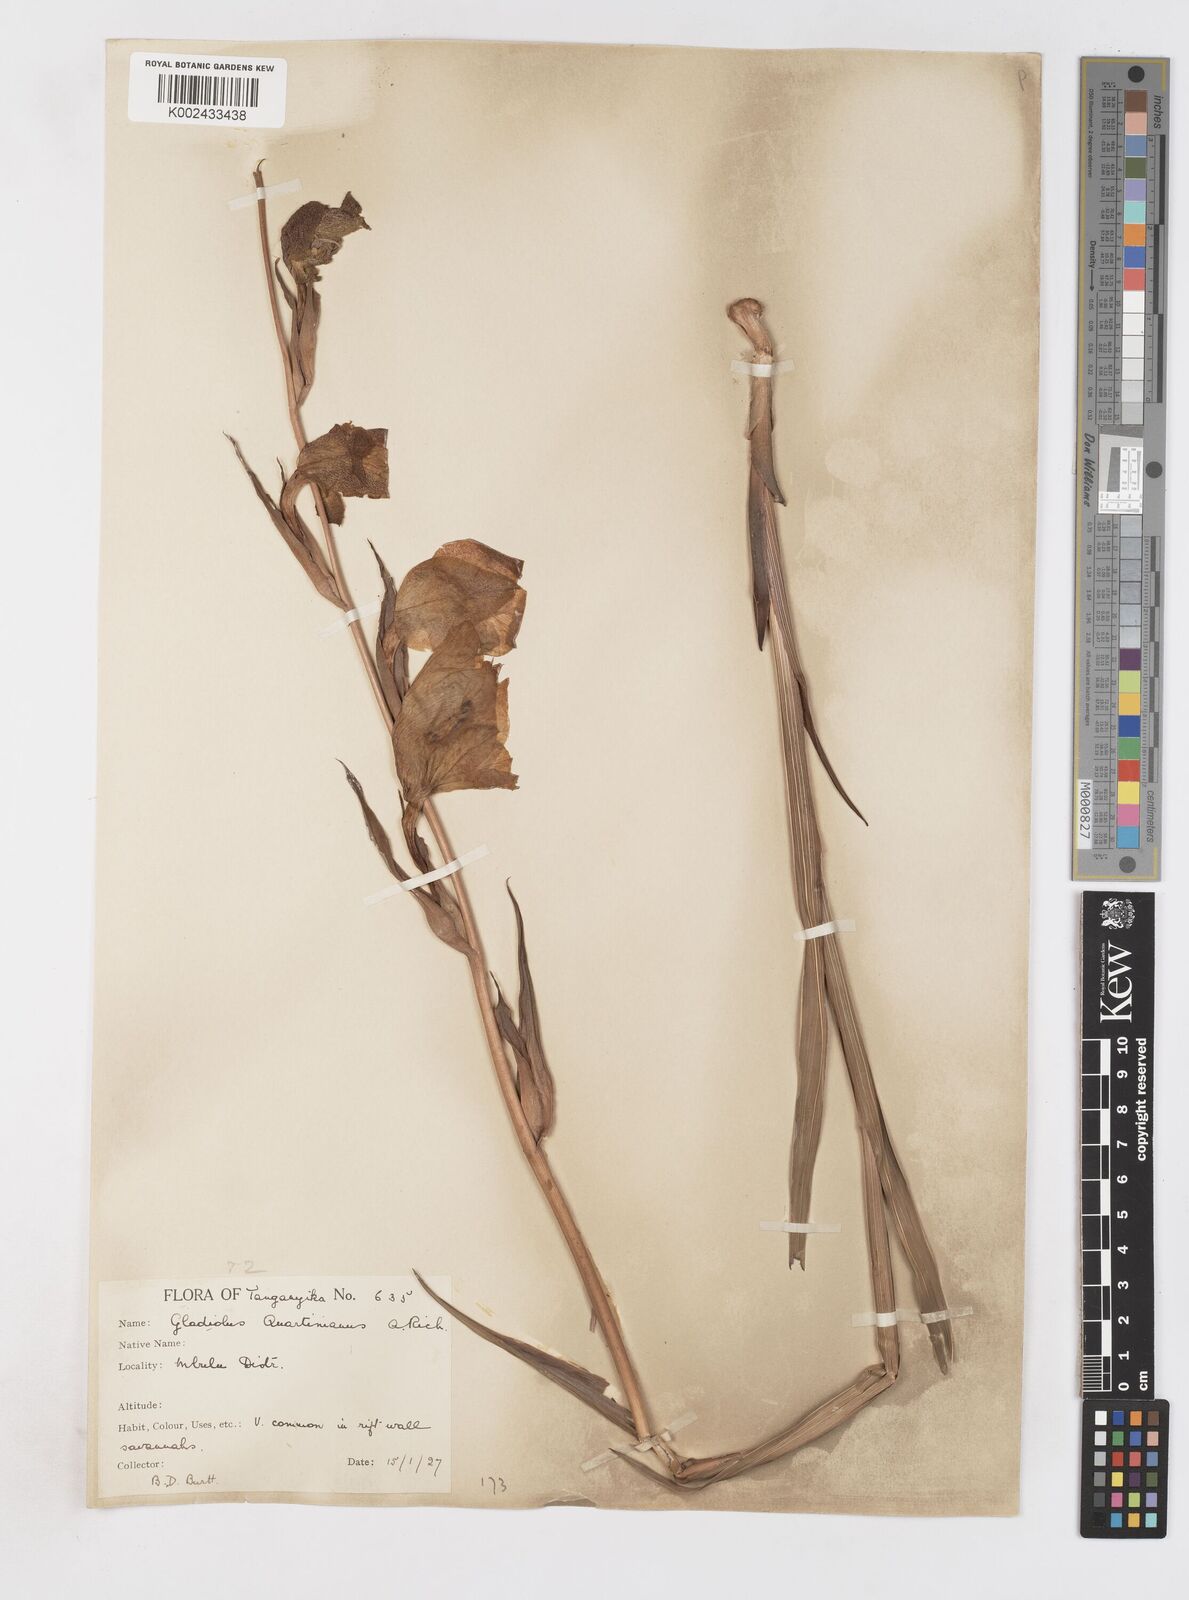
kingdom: Plantae
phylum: Tracheophyta
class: Liliopsida
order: Asparagales
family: Iridaceae
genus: Gladiolus
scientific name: Gladiolus dalenii
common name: Cornflag
